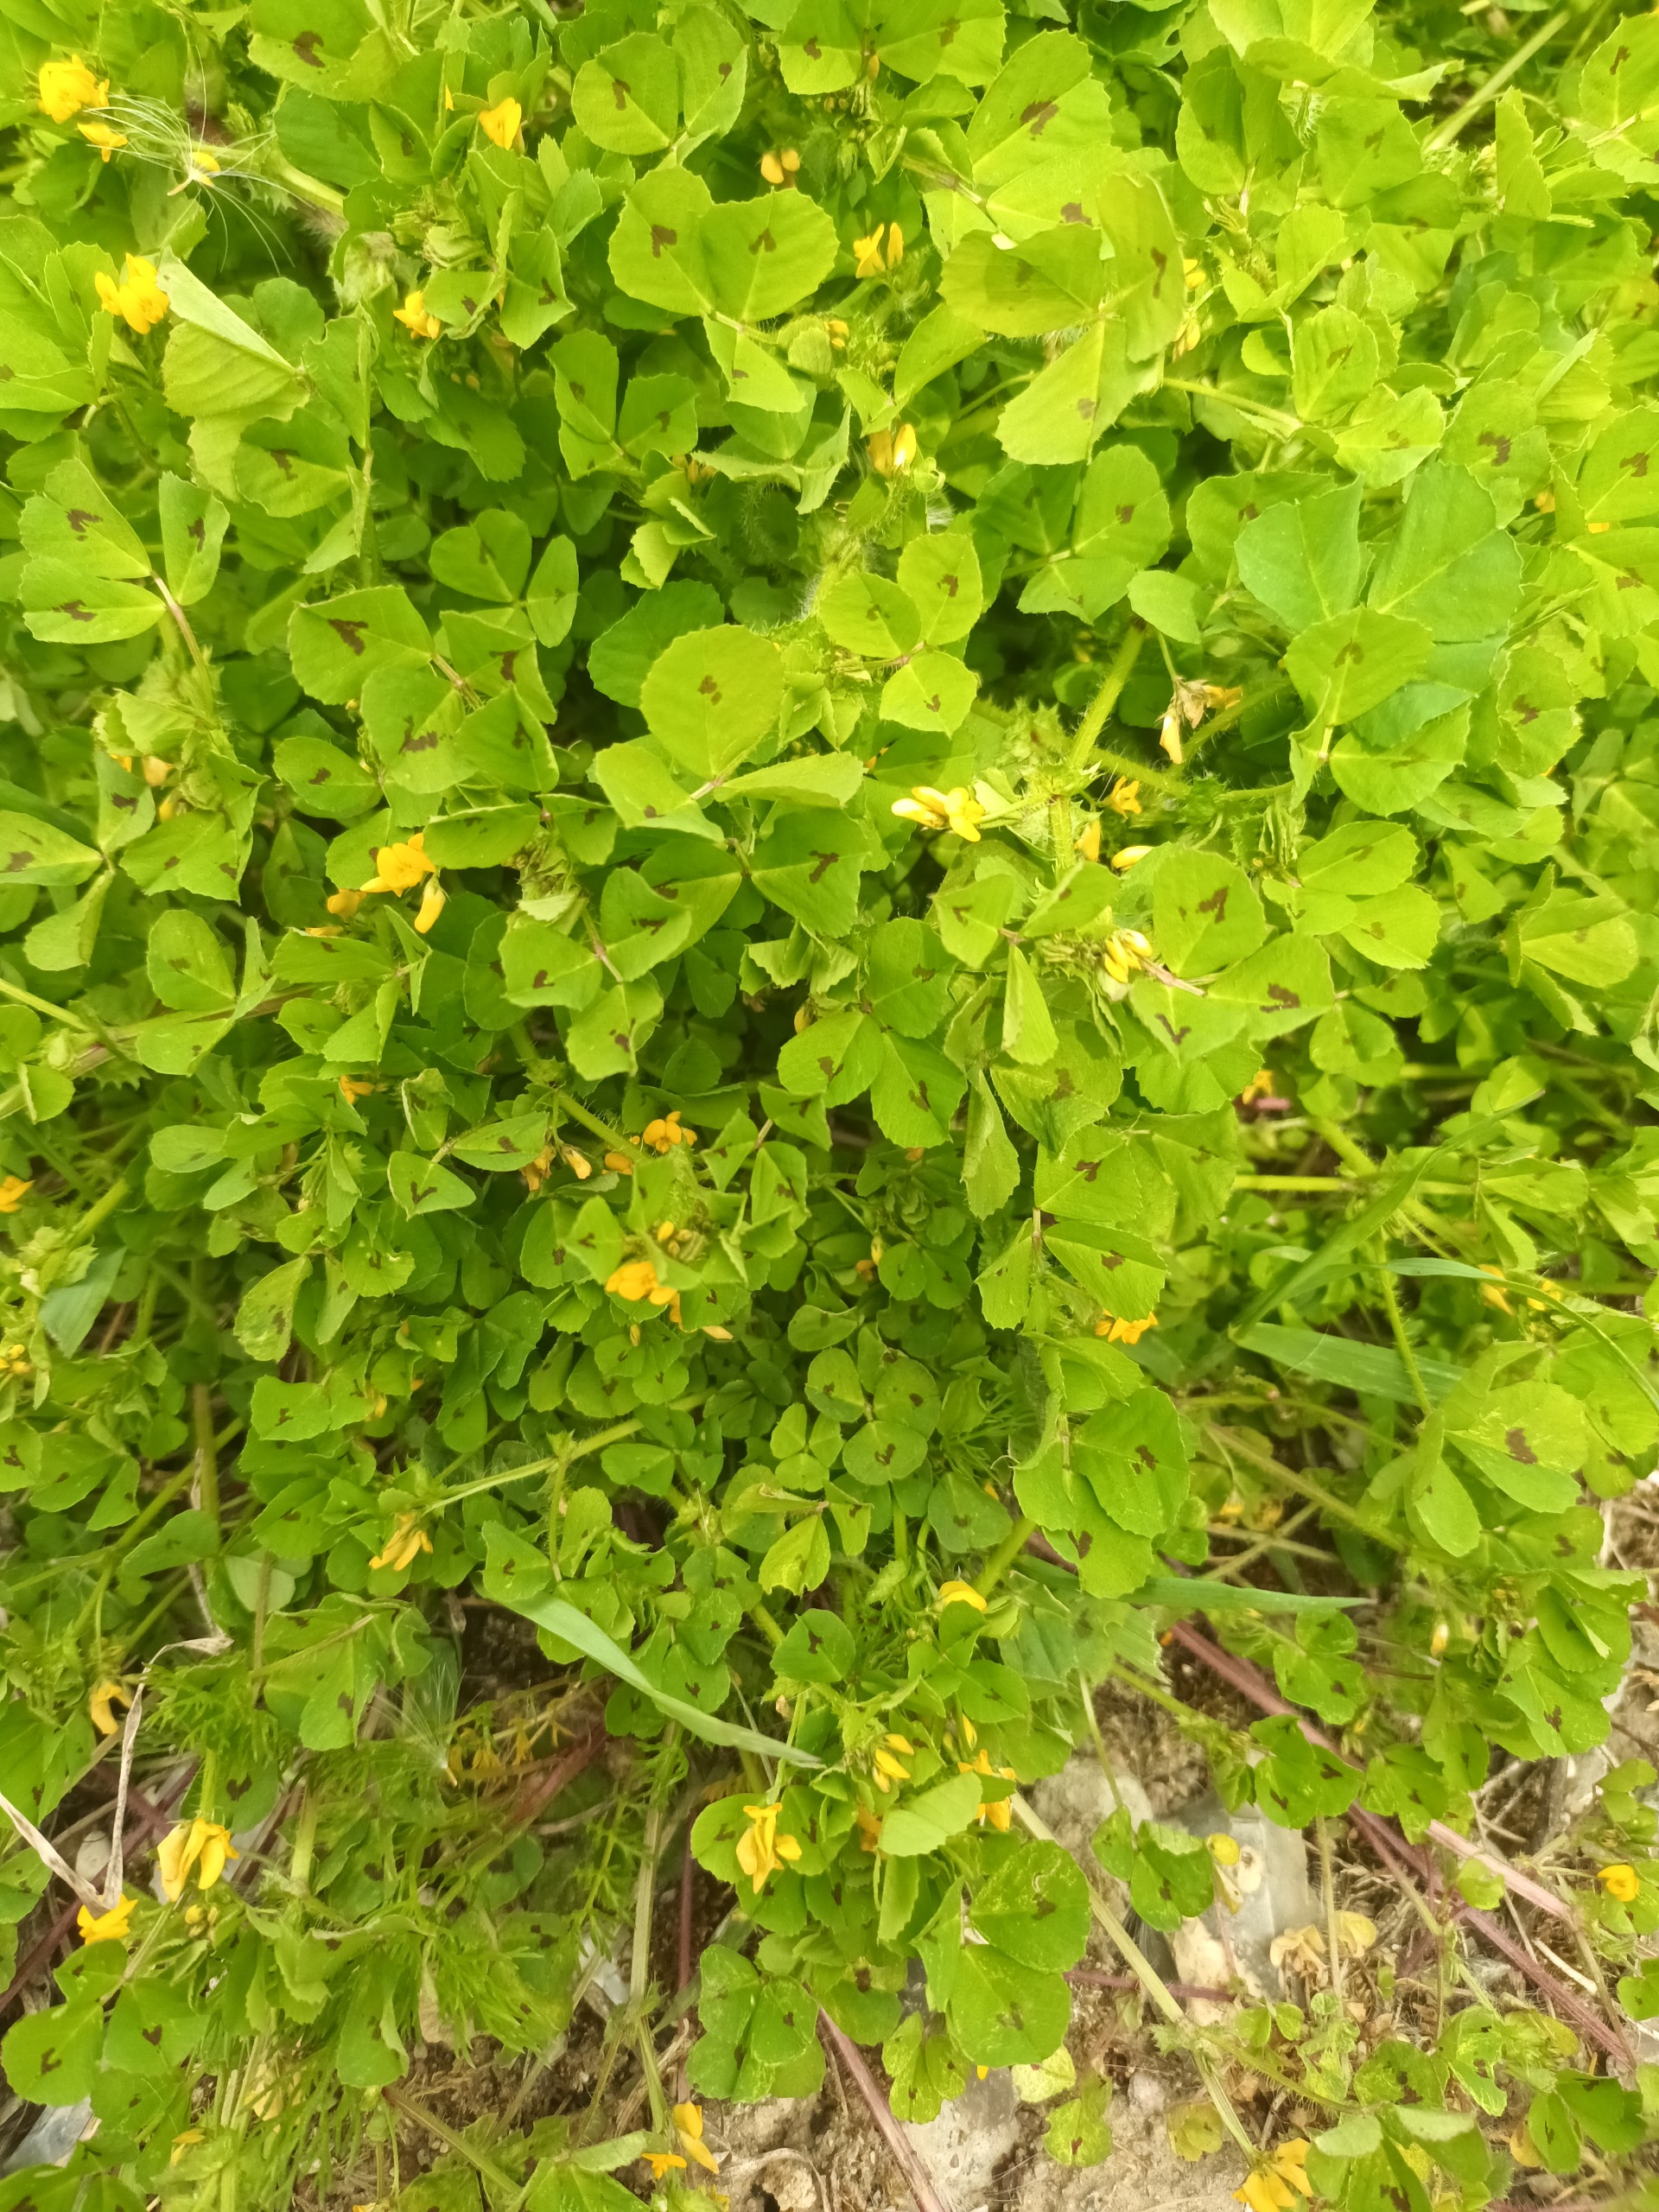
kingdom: Plantae
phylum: Tracheophyta
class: Magnoliopsida
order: Fabales
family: Fabaceae
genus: Medicago
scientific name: Medicago arabica
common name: Plet-sneglebælg
